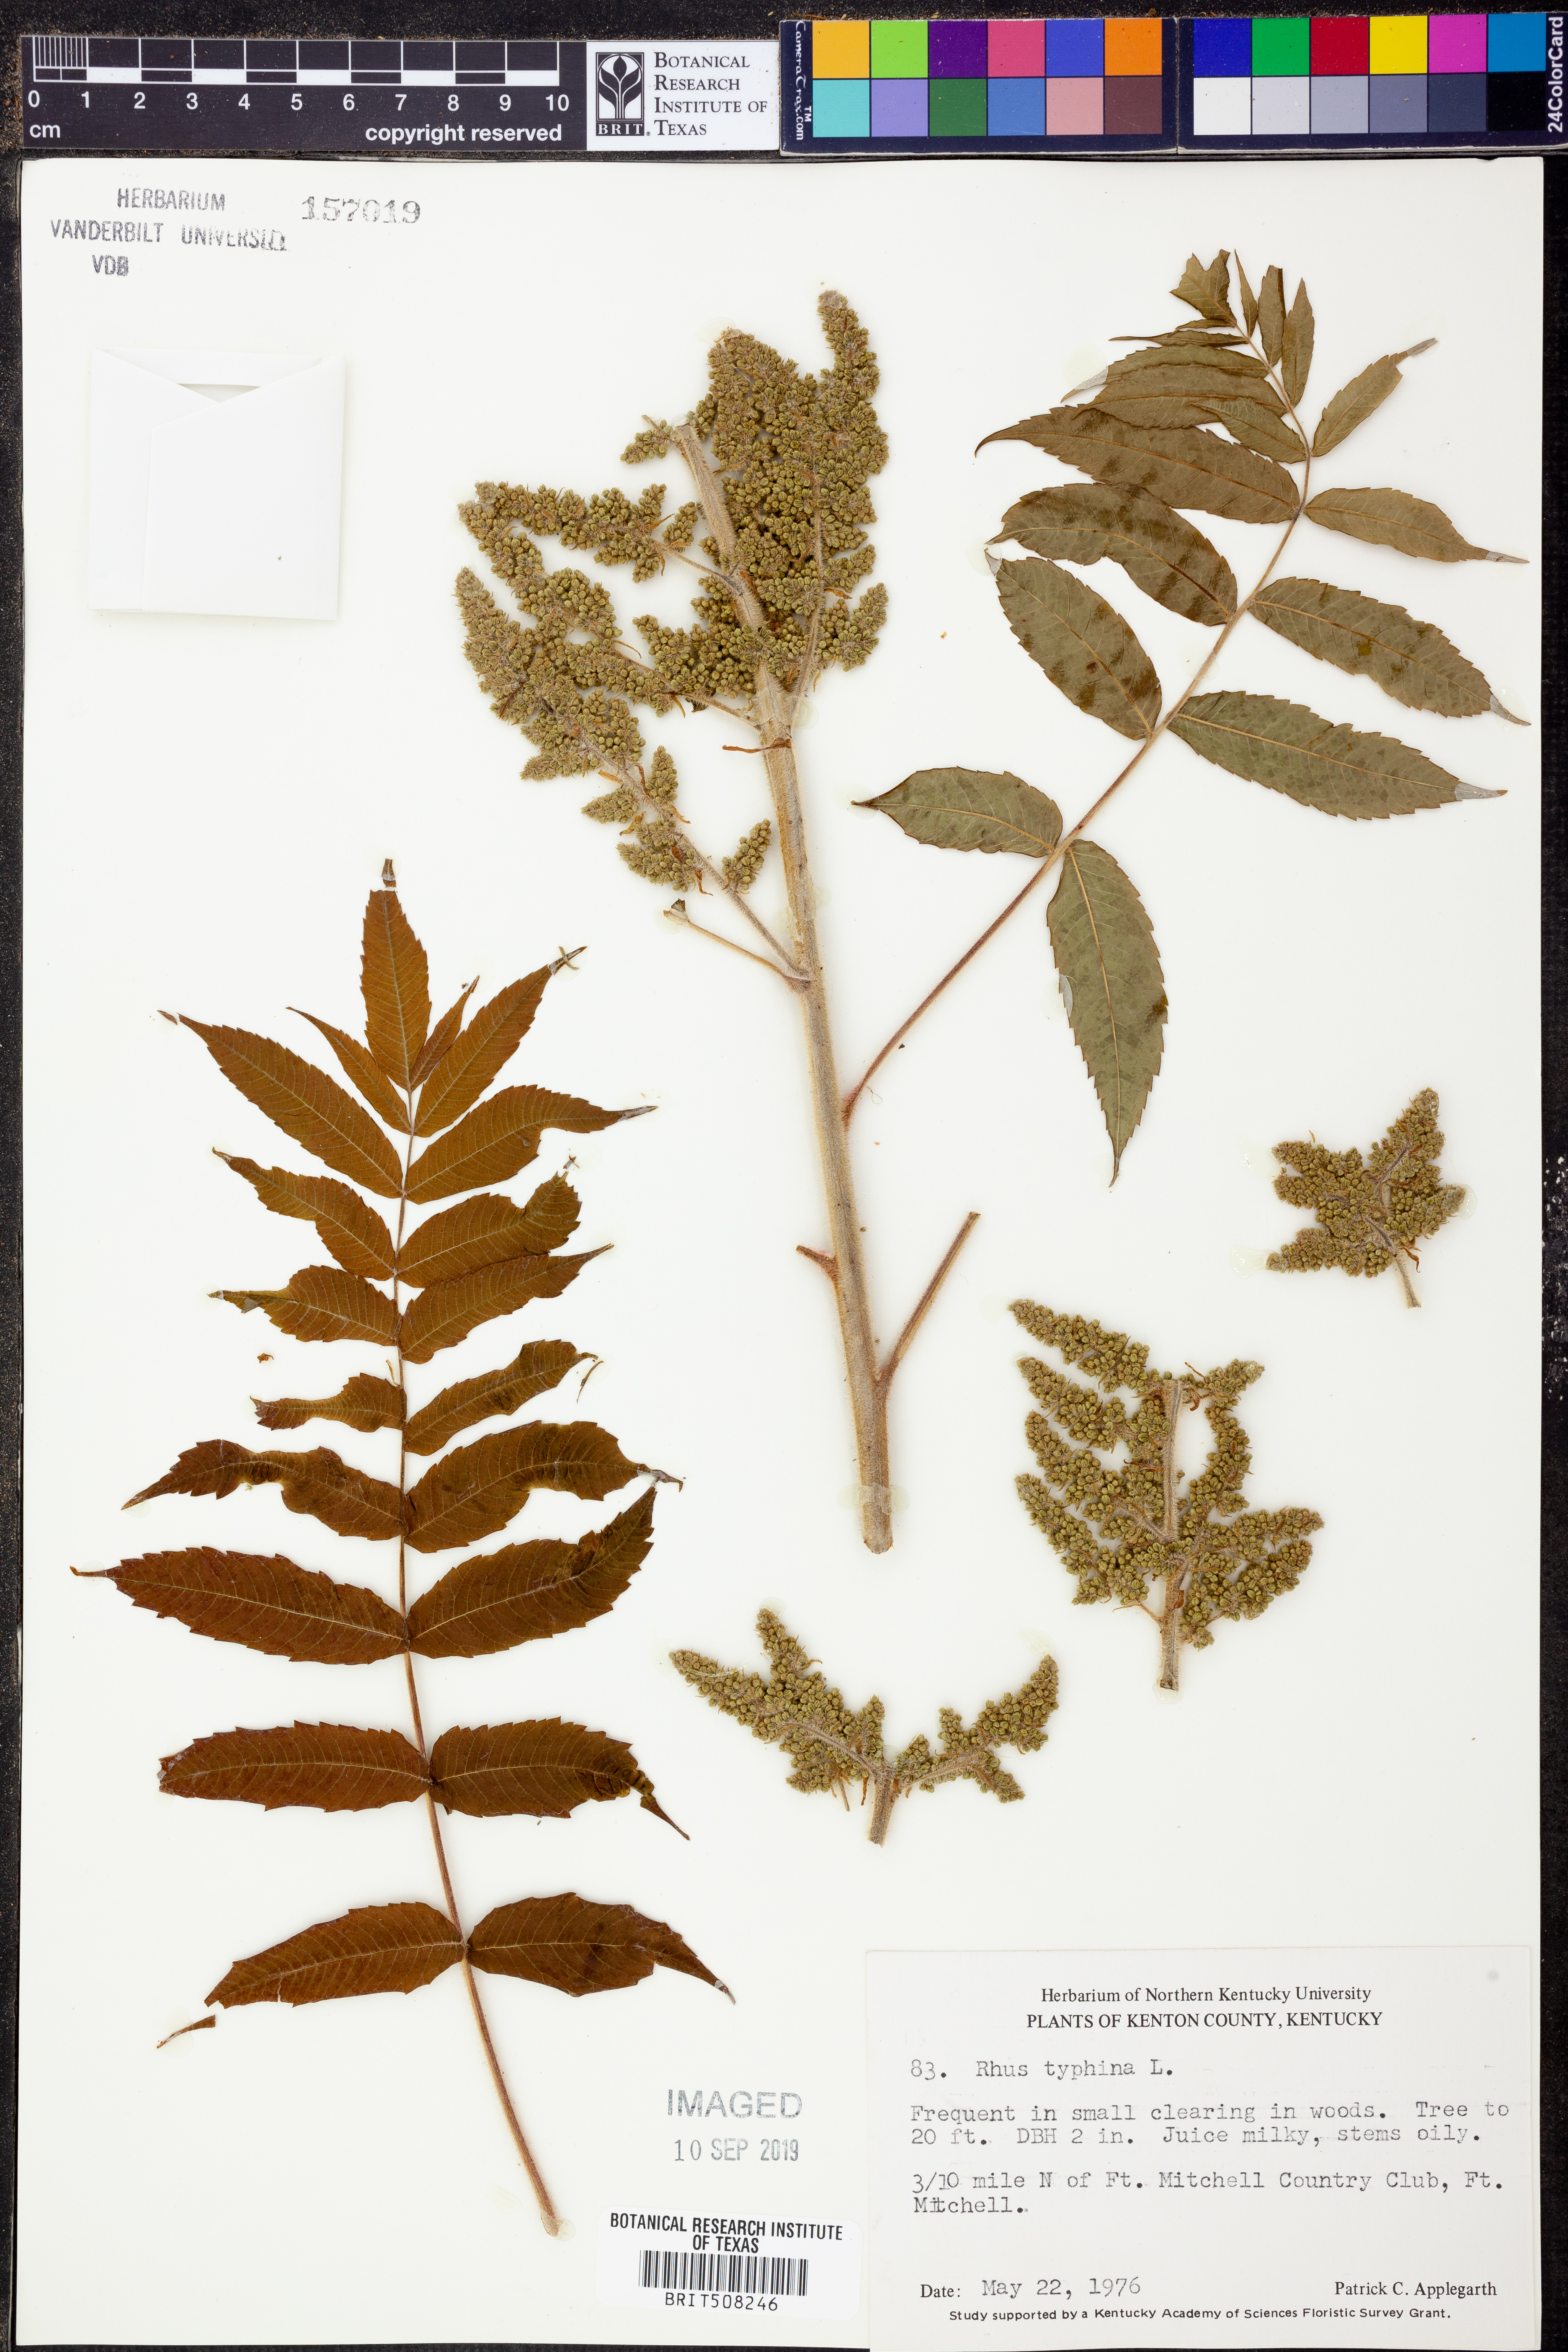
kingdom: Plantae
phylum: Tracheophyta
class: Magnoliopsida
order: Sapindales
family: Anacardiaceae
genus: Rhus
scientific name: Rhus typhina
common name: Staghorn sumac
